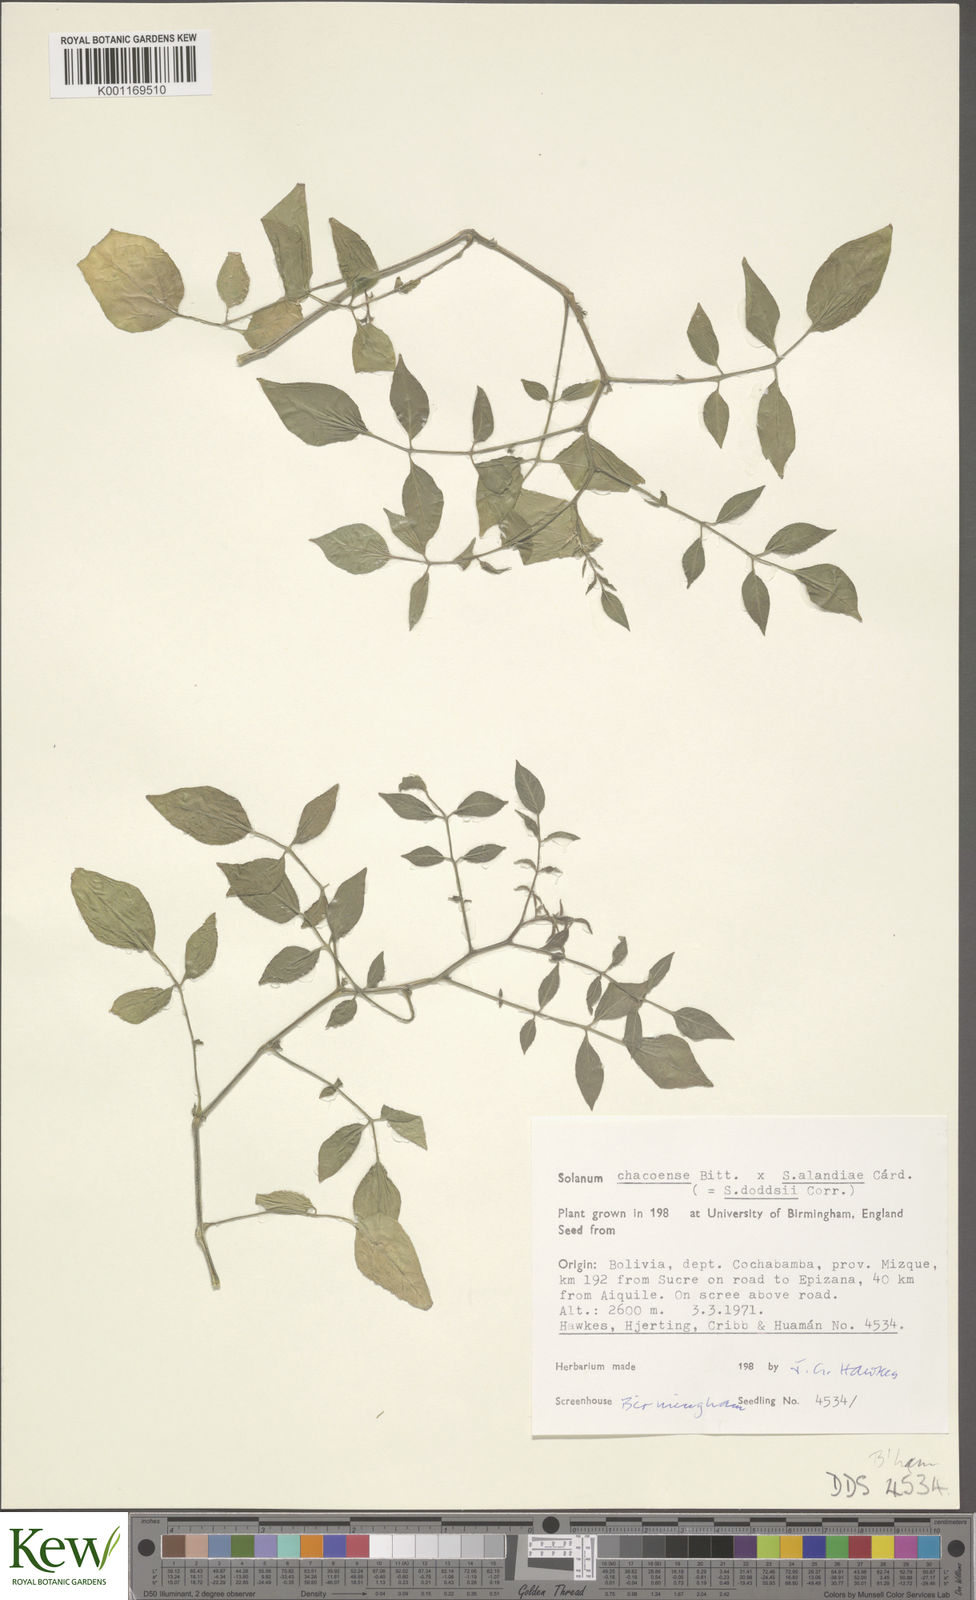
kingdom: Plantae
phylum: Tracheophyta
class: Magnoliopsida
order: Solanales
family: Solanaceae
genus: Solanum
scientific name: Solanum doddsii
